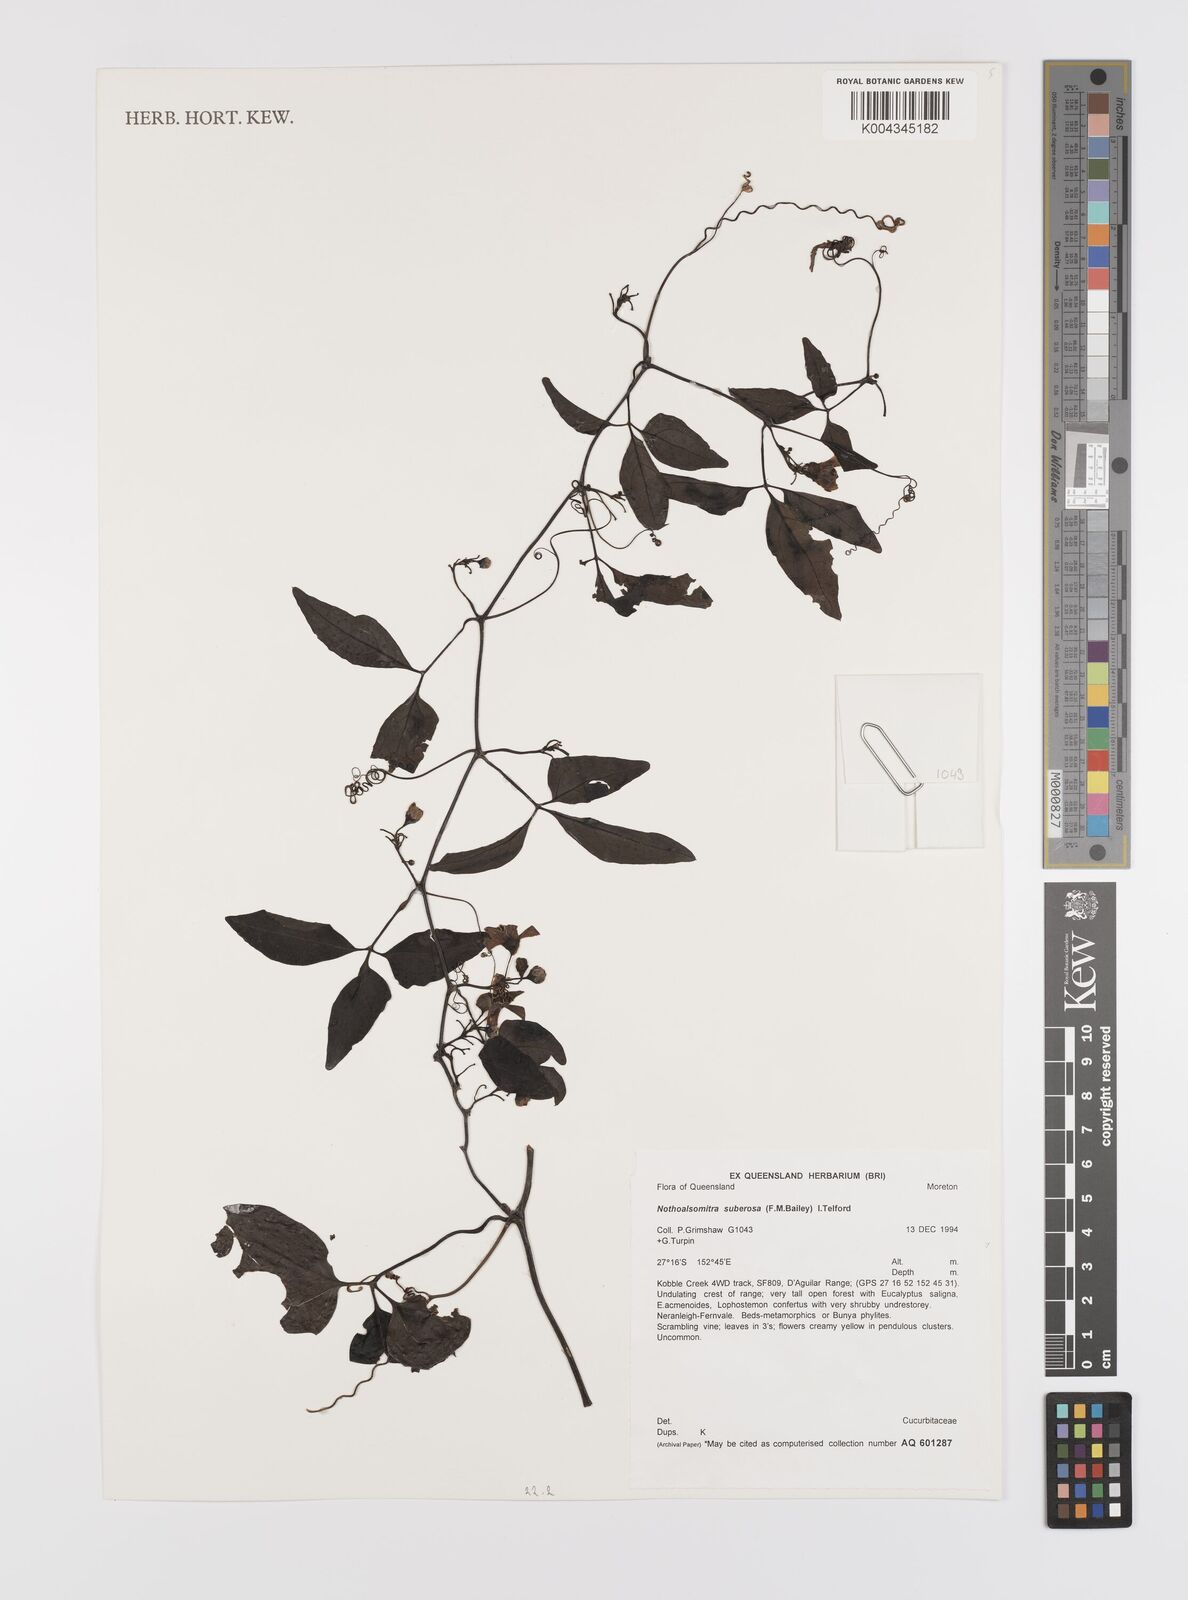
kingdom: Plantae
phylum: Tracheophyta
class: Magnoliopsida
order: Cucurbitales
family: Cucurbitaceae
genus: Nothoalsomitra
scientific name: Nothoalsomitra suberosa
